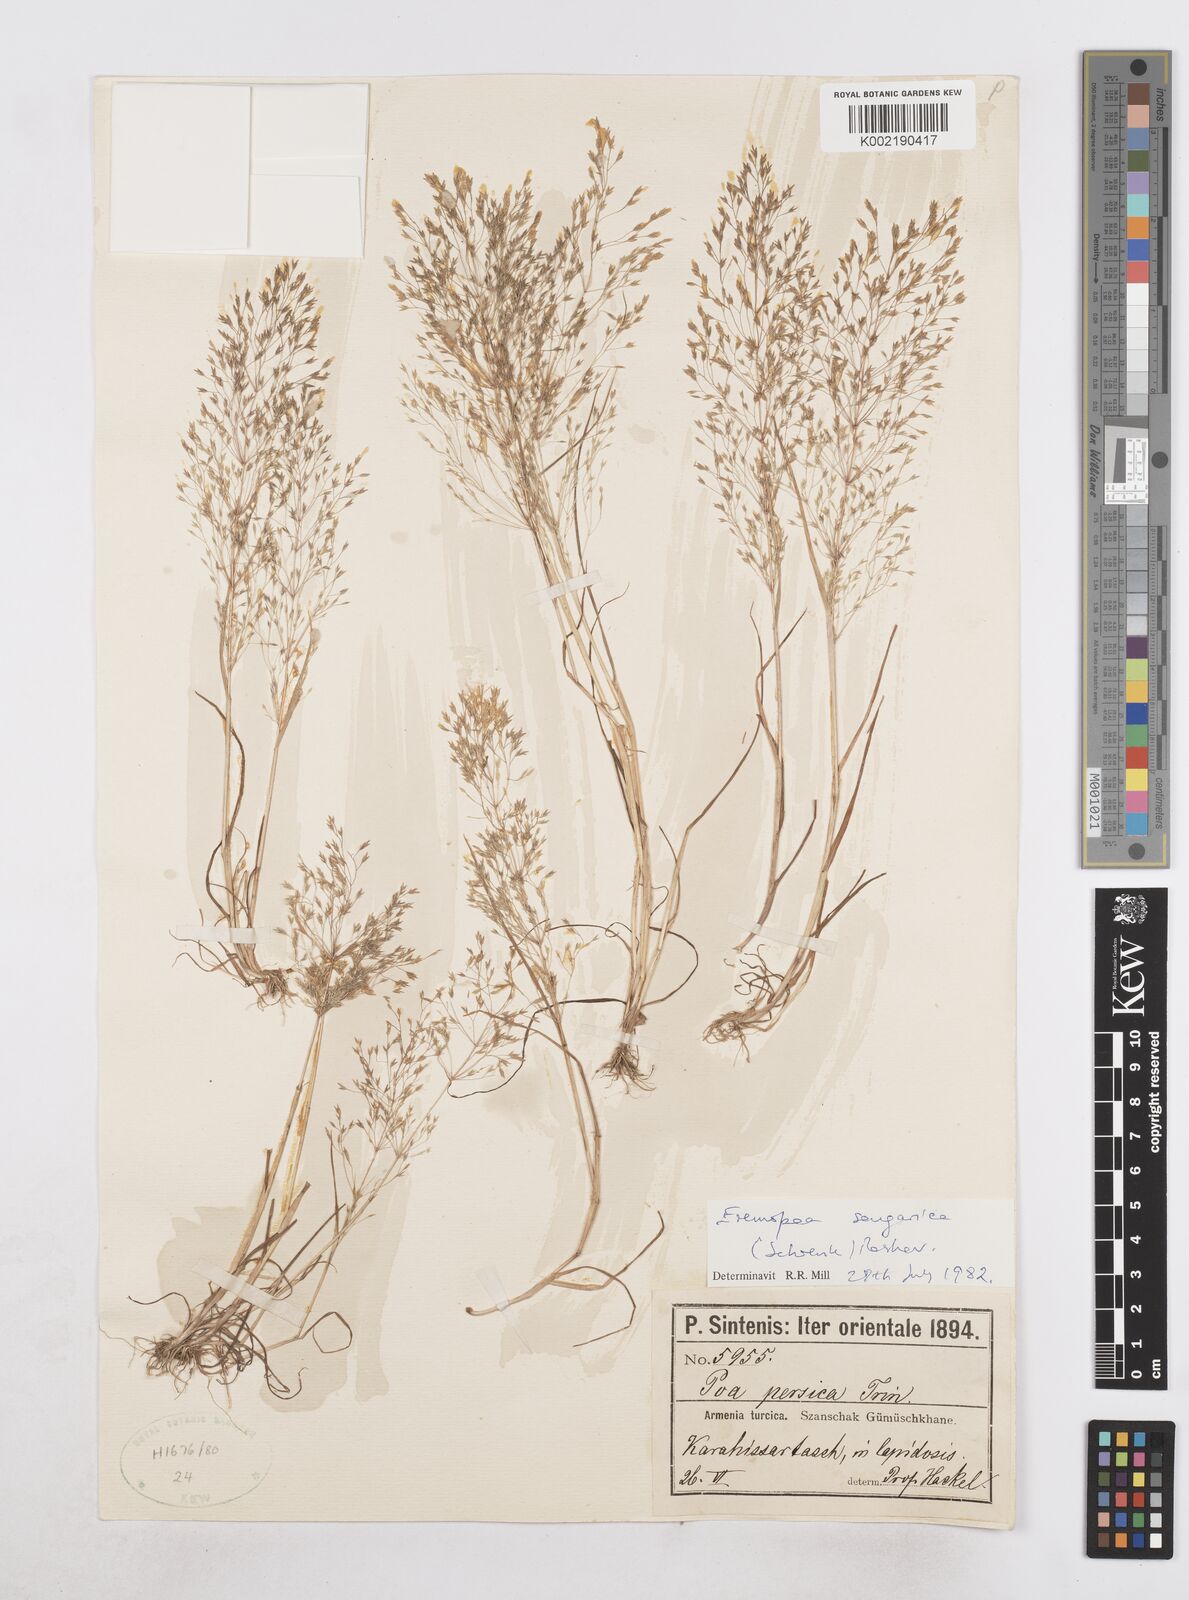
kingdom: Plantae
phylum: Tracheophyta
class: Liliopsida
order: Poales
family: Poaceae
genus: Poa
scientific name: Poa diaphora
